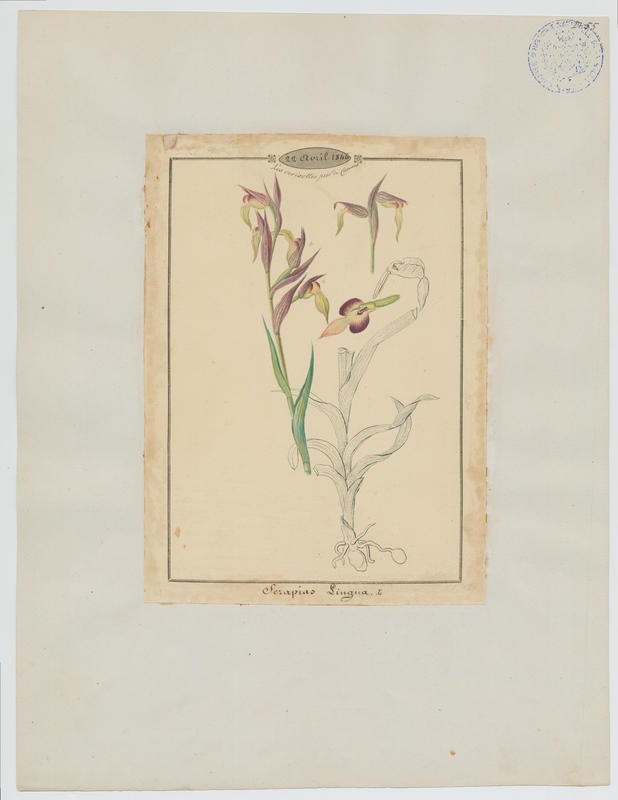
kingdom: Plantae
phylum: Tracheophyta
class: Liliopsida
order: Asparagales
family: Orchidaceae
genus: Serapias
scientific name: Serapias lingua
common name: Tongue-orchid
